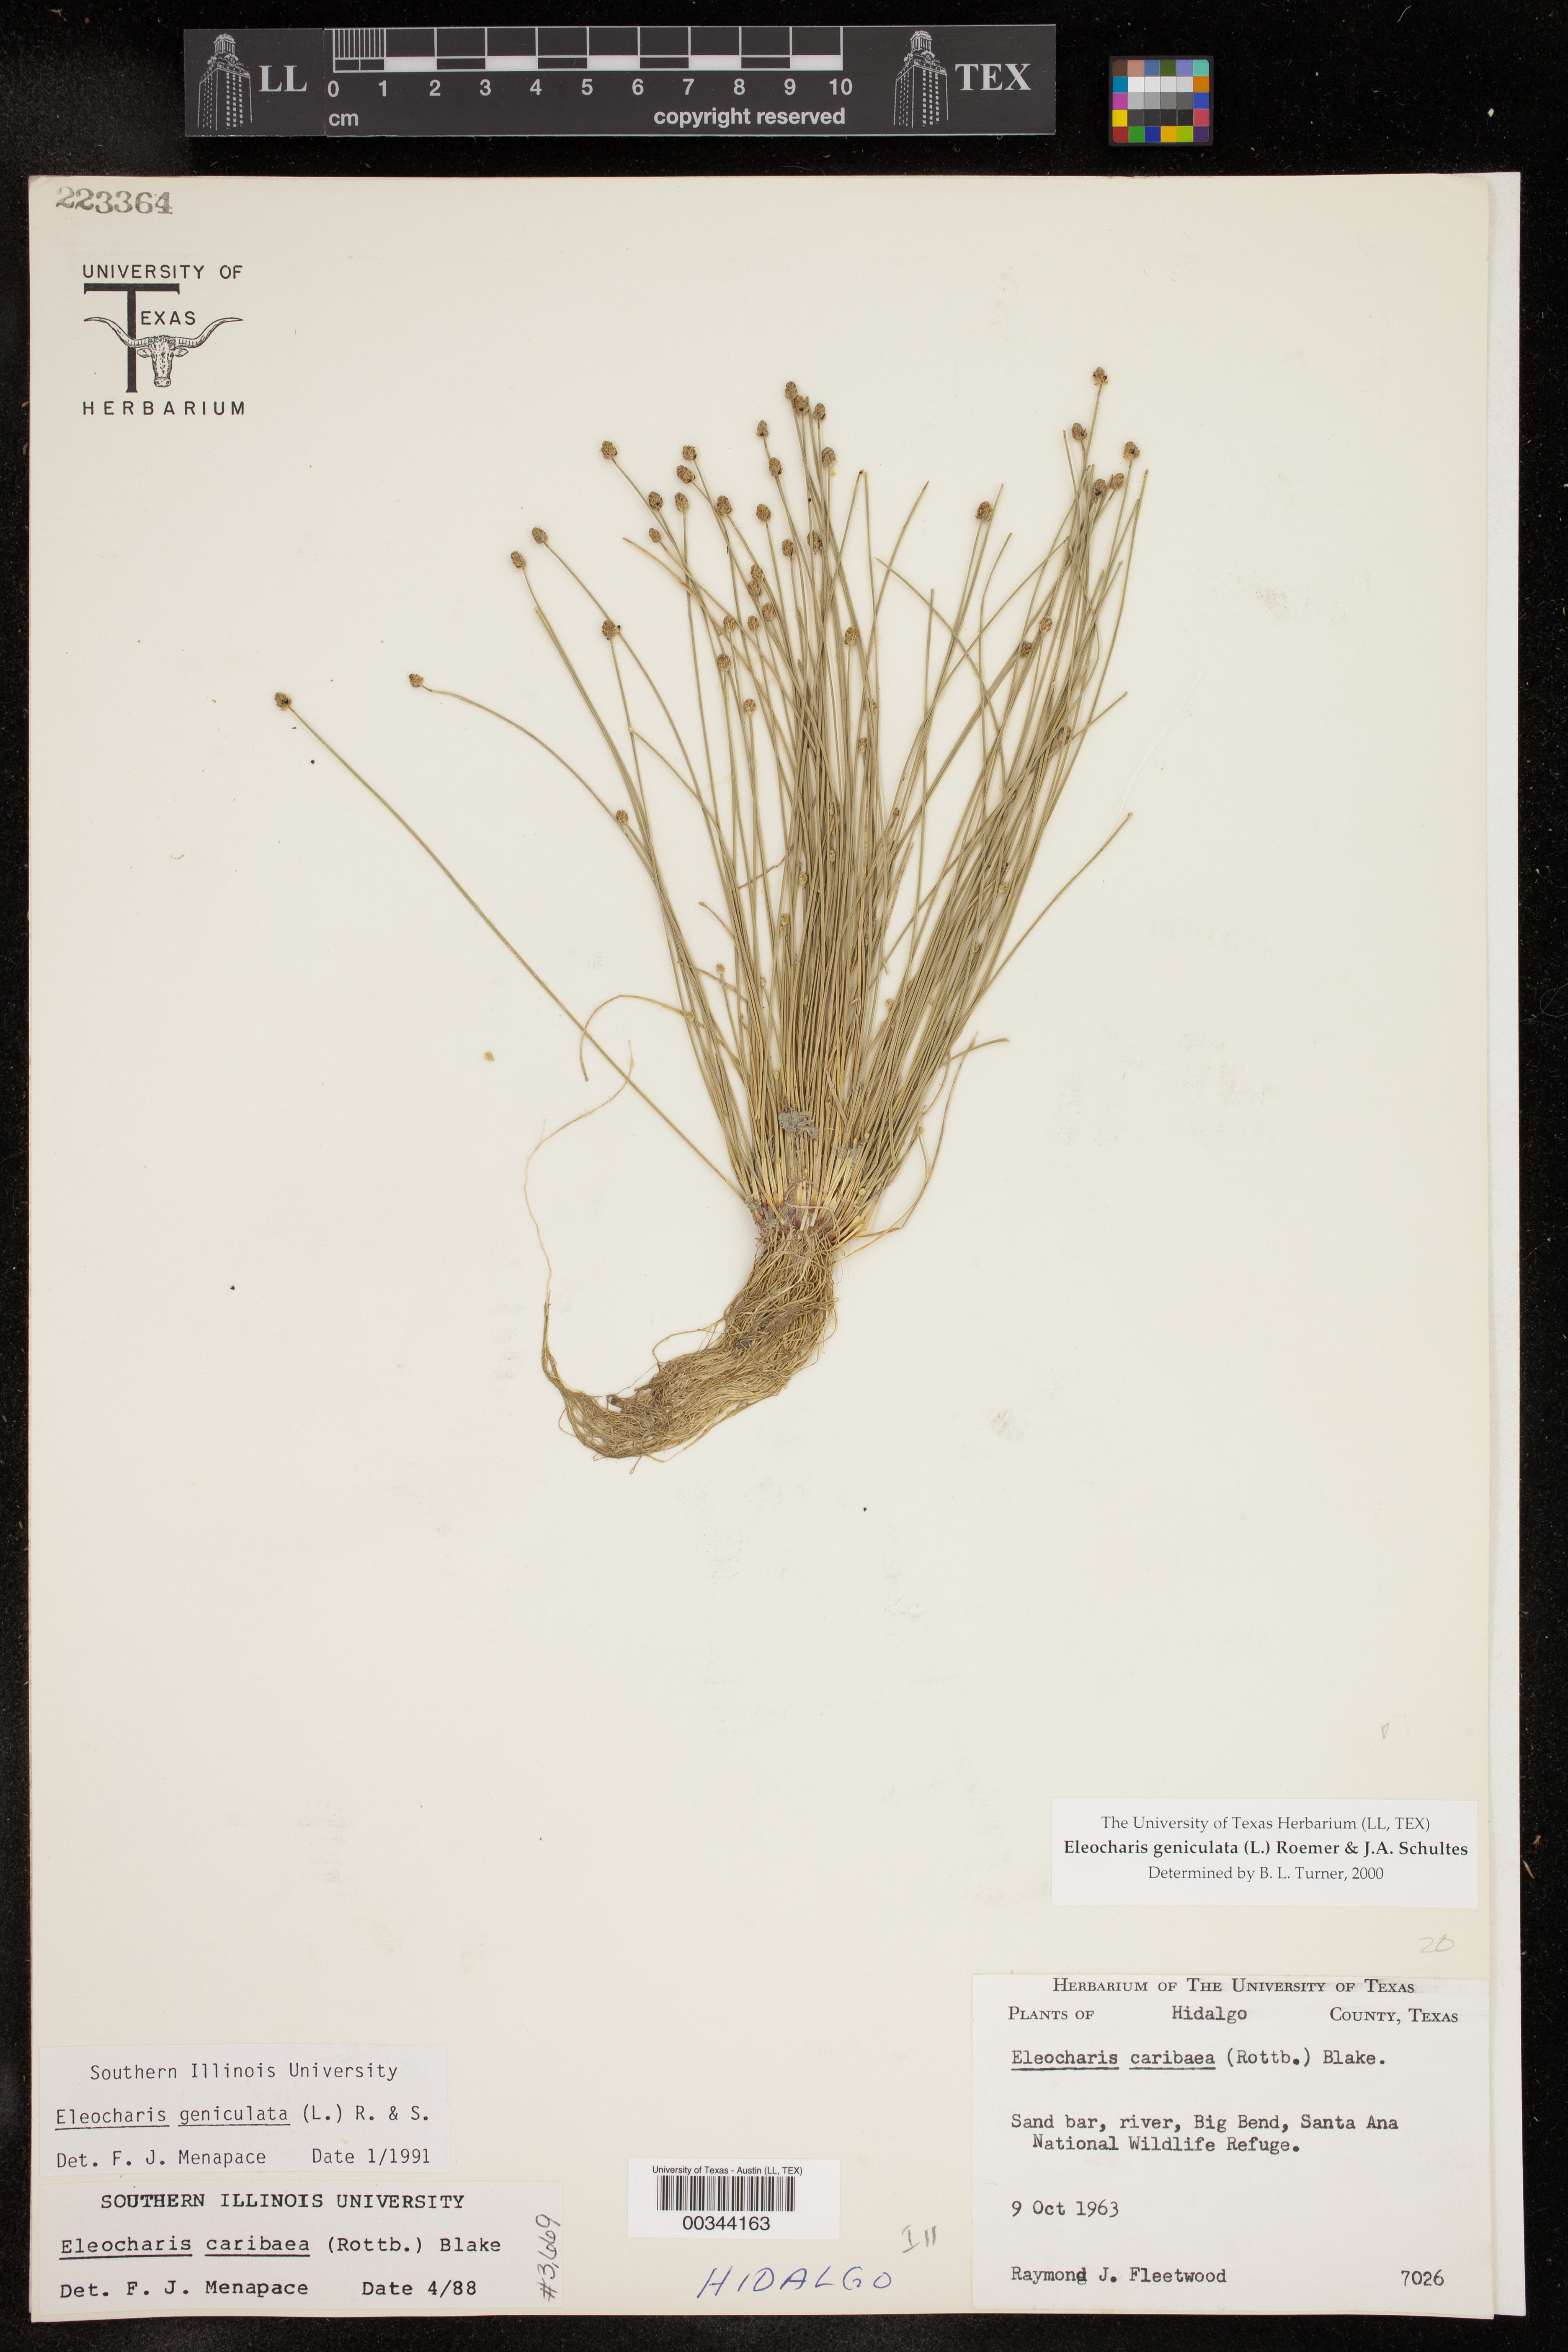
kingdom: Plantae
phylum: Tracheophyta
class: Liliopsida
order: Poales
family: Cyperaceae
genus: Eleocharis
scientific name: Eleocharis geniculata
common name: Canada spikesedge
